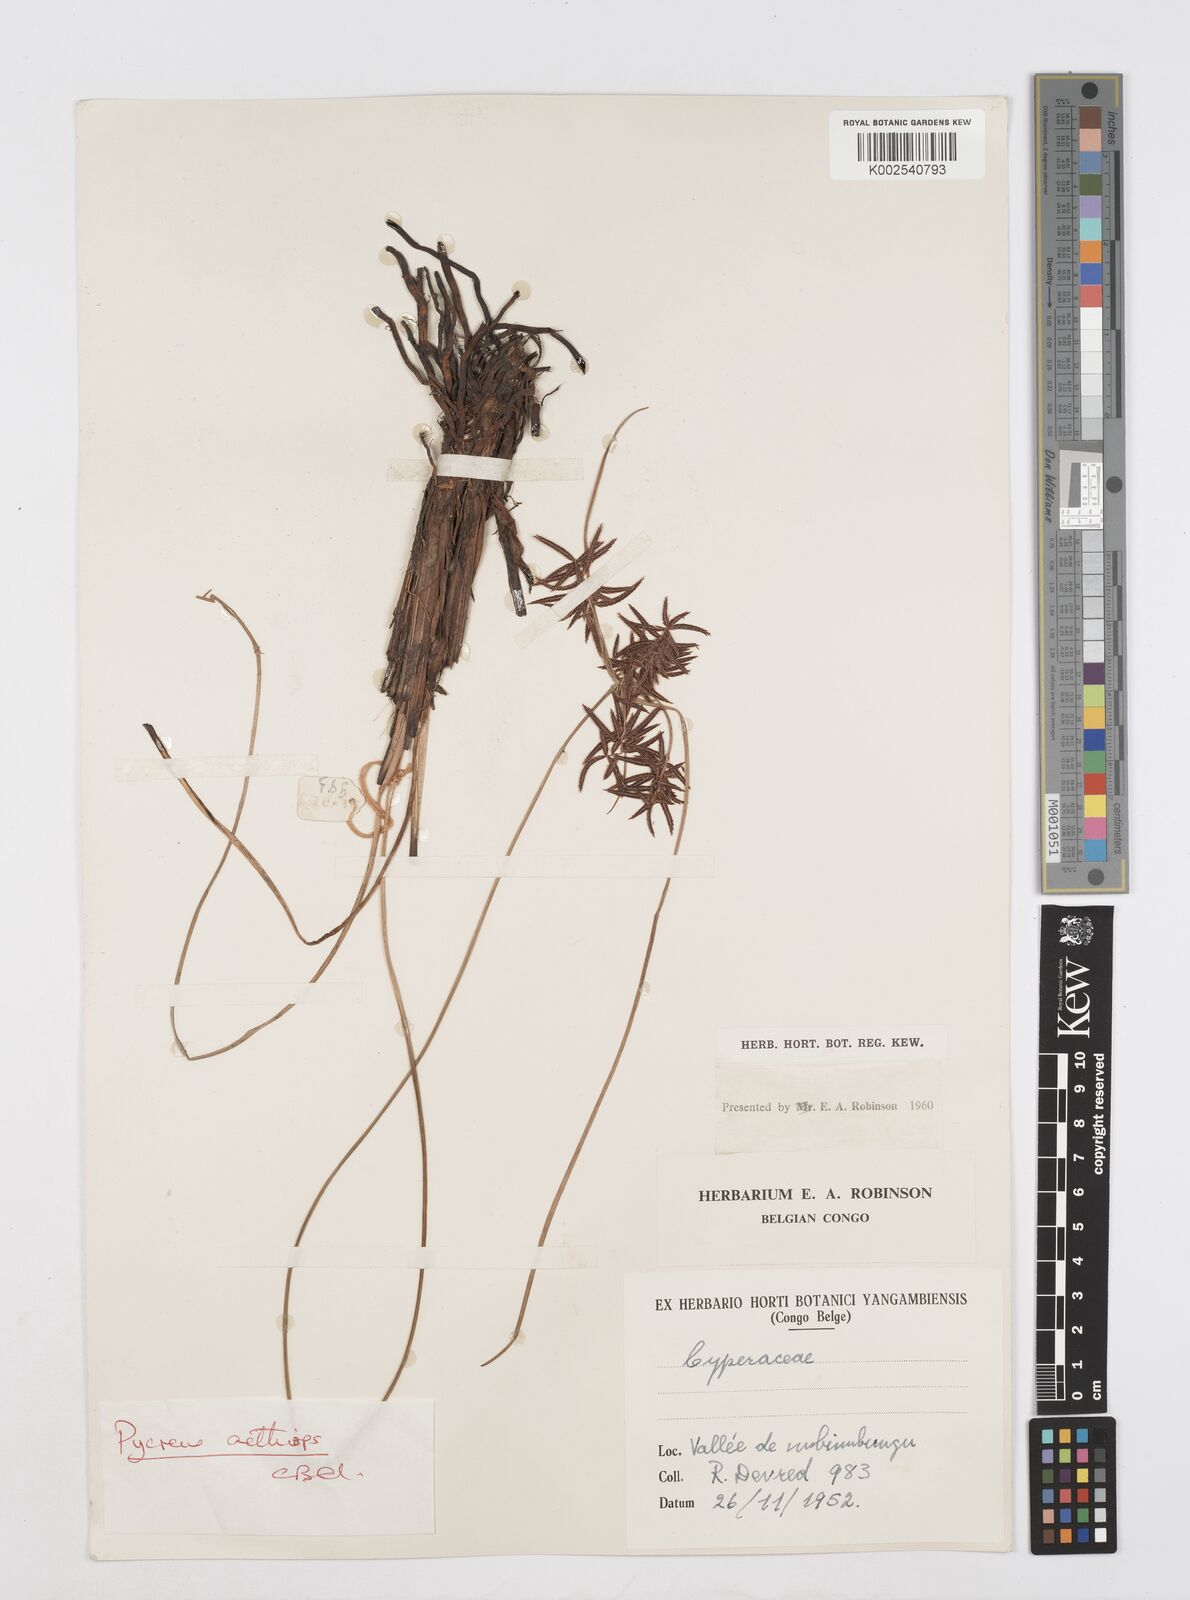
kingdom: Plantae
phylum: Tracheophyta
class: Liliopsida
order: Poales
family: Cyperaceae
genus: Cyperus
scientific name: Cyperus aethiops
